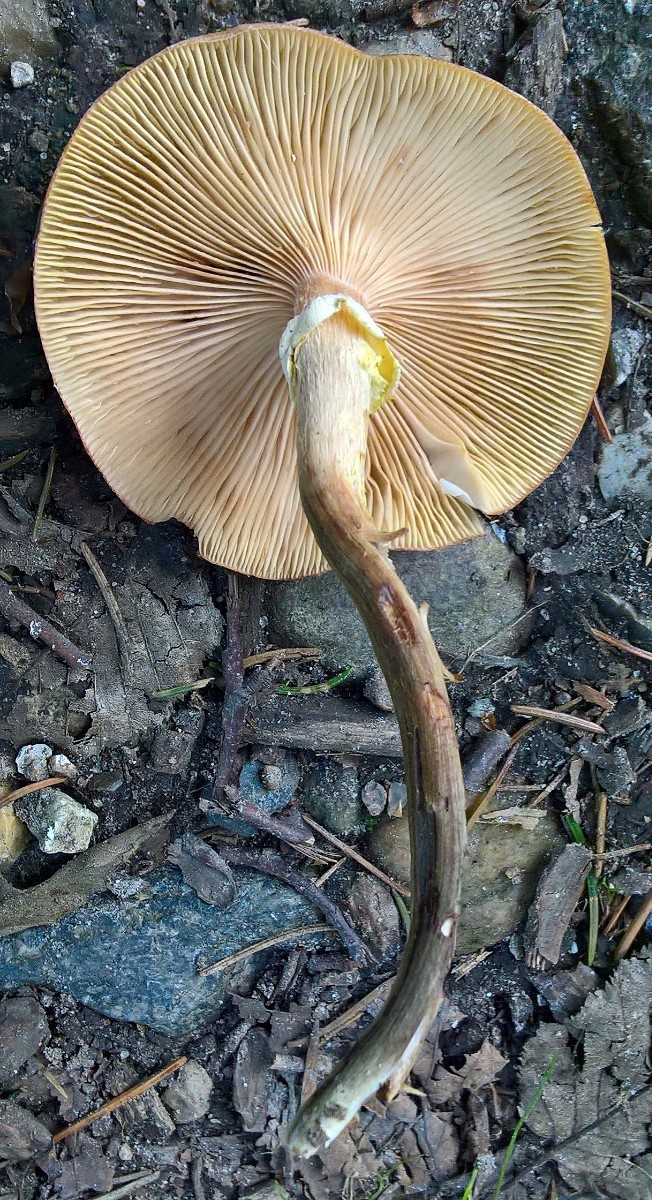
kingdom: Fungi
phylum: Basidiomycota
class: Agaricomycetes
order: Agaricales
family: Physalacriaceae
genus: Armillaria
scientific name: Armillaria mellea
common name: ægte honningsvamp
